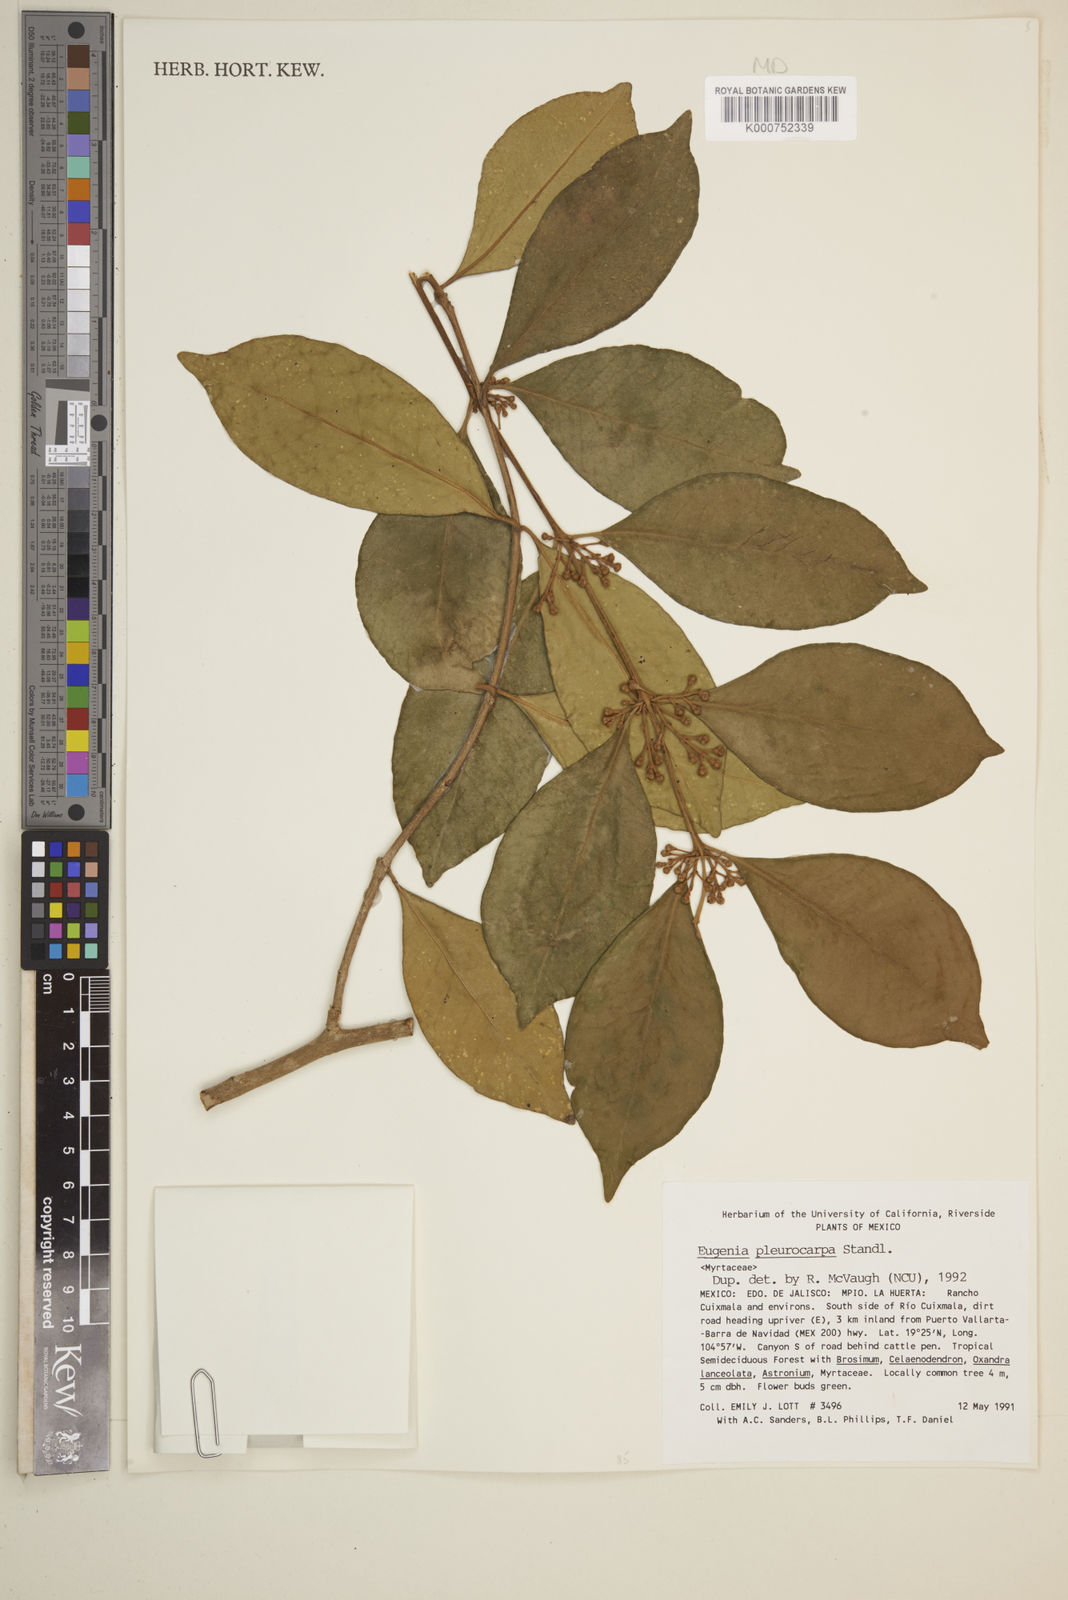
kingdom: Plantae
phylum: Tracheophyta
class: Magnoliopsida
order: Myrtales
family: Myrtaceae
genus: Eugenia
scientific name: Eugenia pleurocarpa
